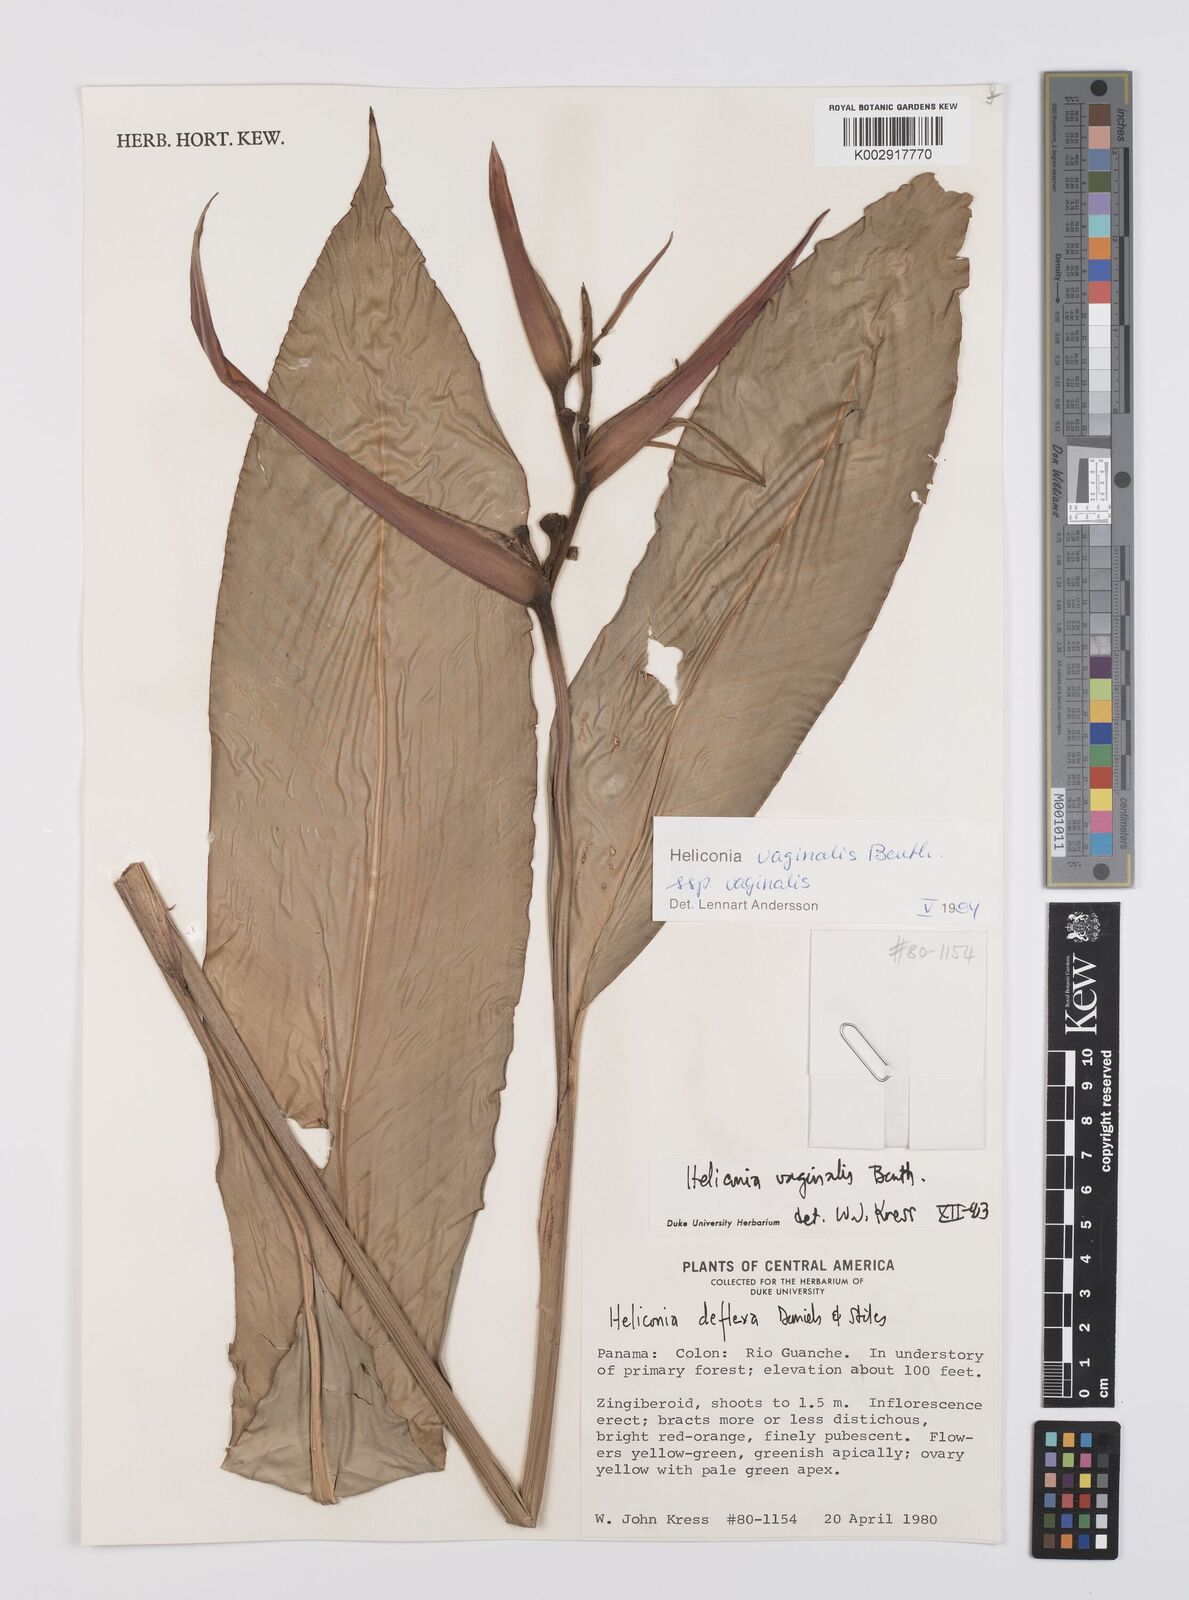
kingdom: Plantae
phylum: Tracheophyta
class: Liliopsida
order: Zingiberales
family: Heliconiaceae
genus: Heliconia
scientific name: Heliconia vaginalis
